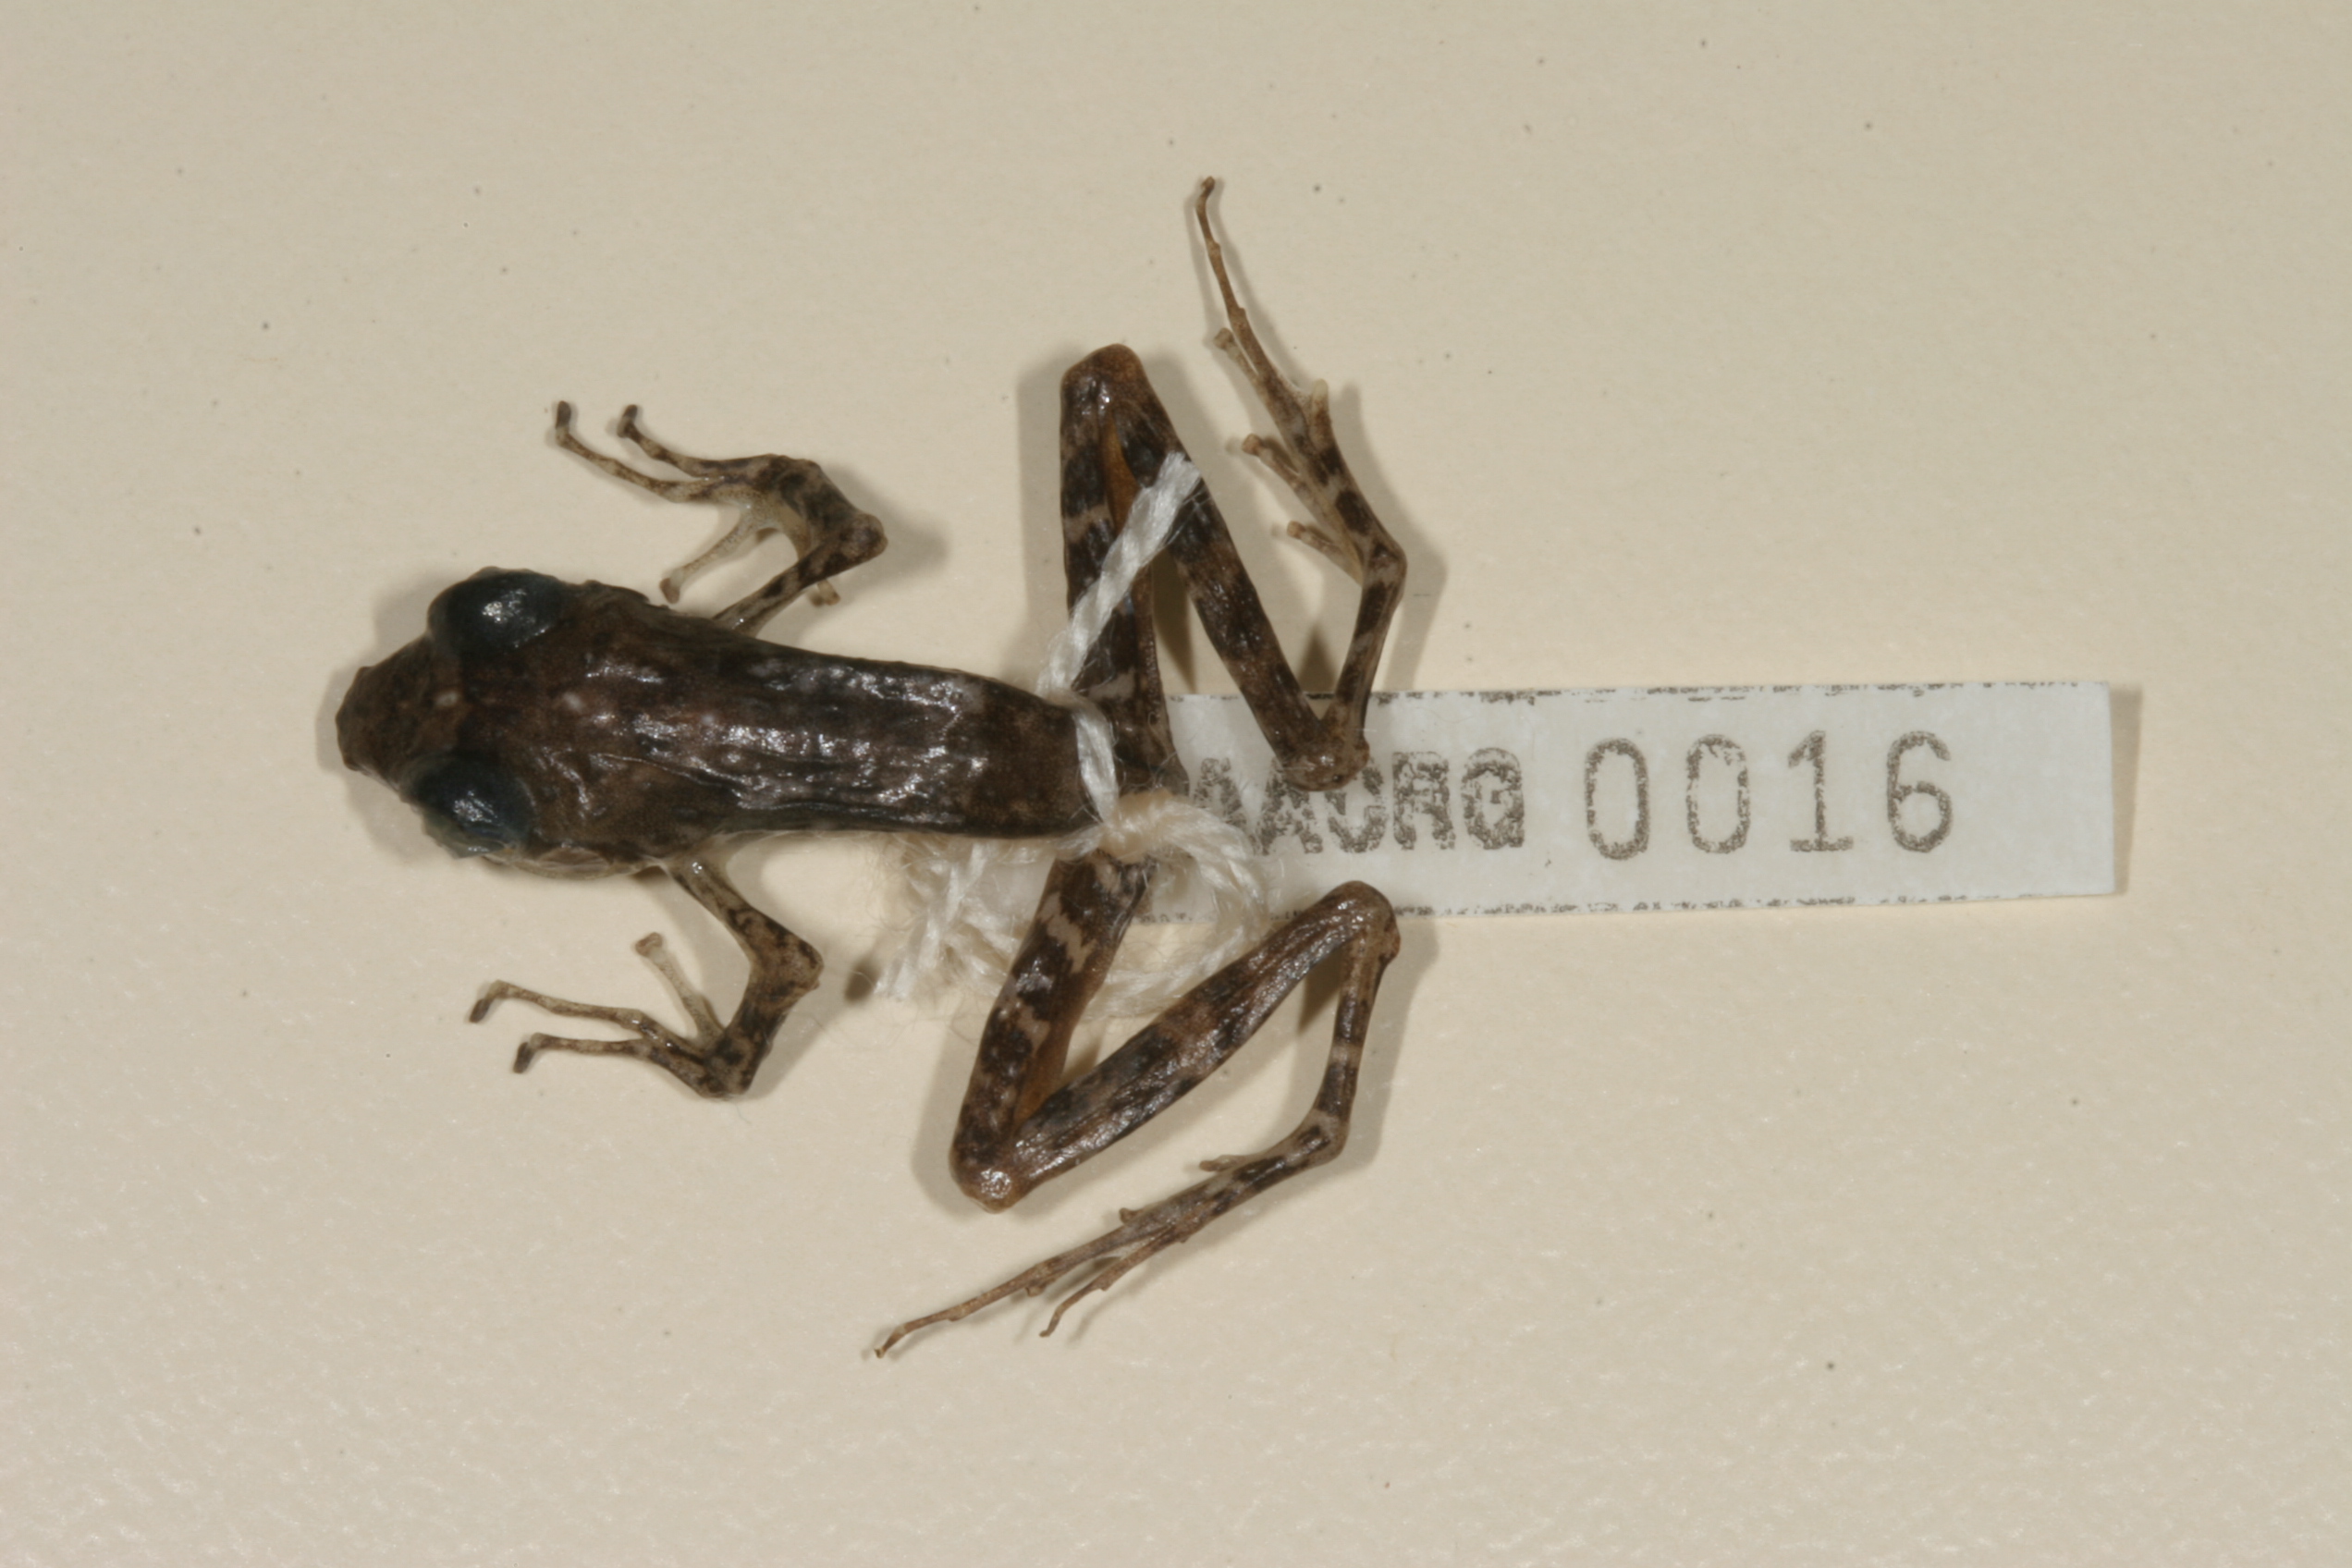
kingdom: Animalia
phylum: Chordata
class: Amphibia
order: Anura
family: Pyxicephalidae
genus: Natalobatrachus
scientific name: Natalobatrachus bonebergi
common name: Natal diving frog
